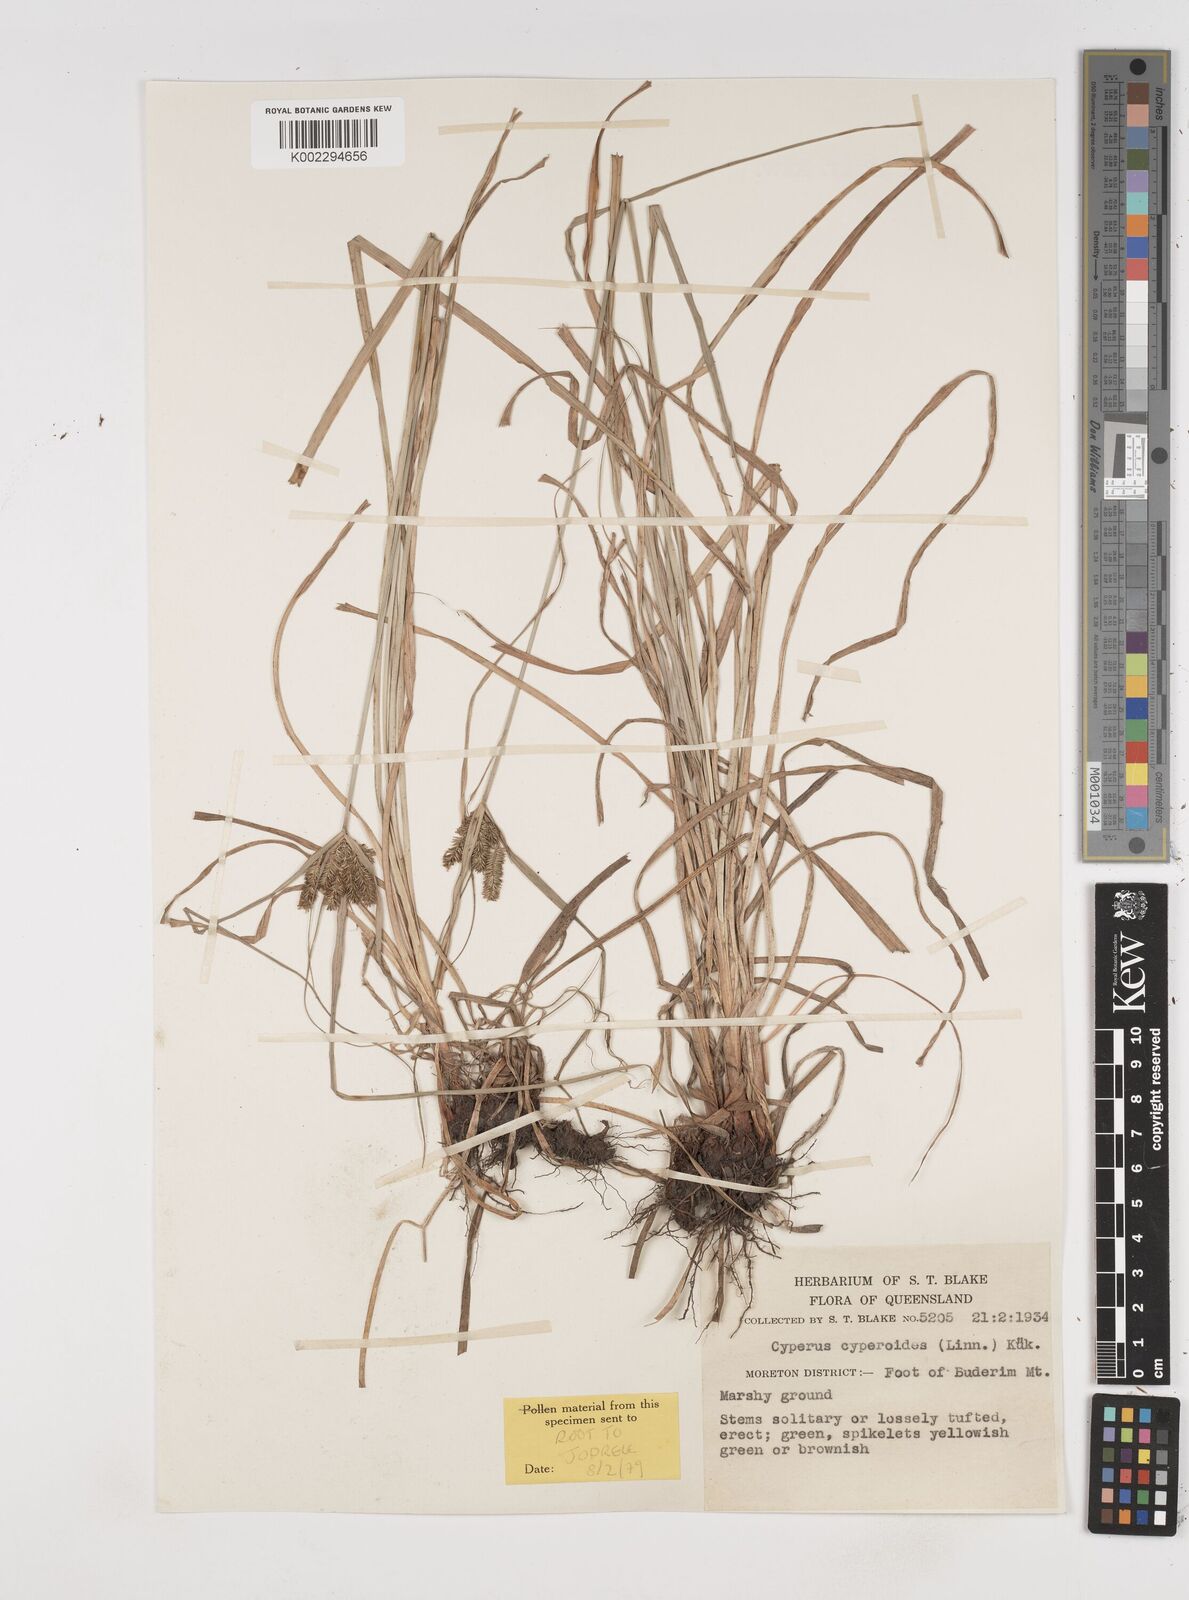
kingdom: Plantae
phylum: Tracheophyta
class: Liliopsida
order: Poales
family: Cyperaceae
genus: Cyperus
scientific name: Cyperus cyperoides
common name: Pacific island flat sedge
